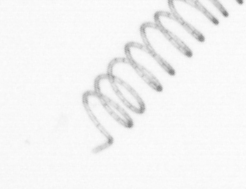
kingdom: Chromista
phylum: Ochrophyta
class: Bacillariophyceae
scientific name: Bacillariophyceae
